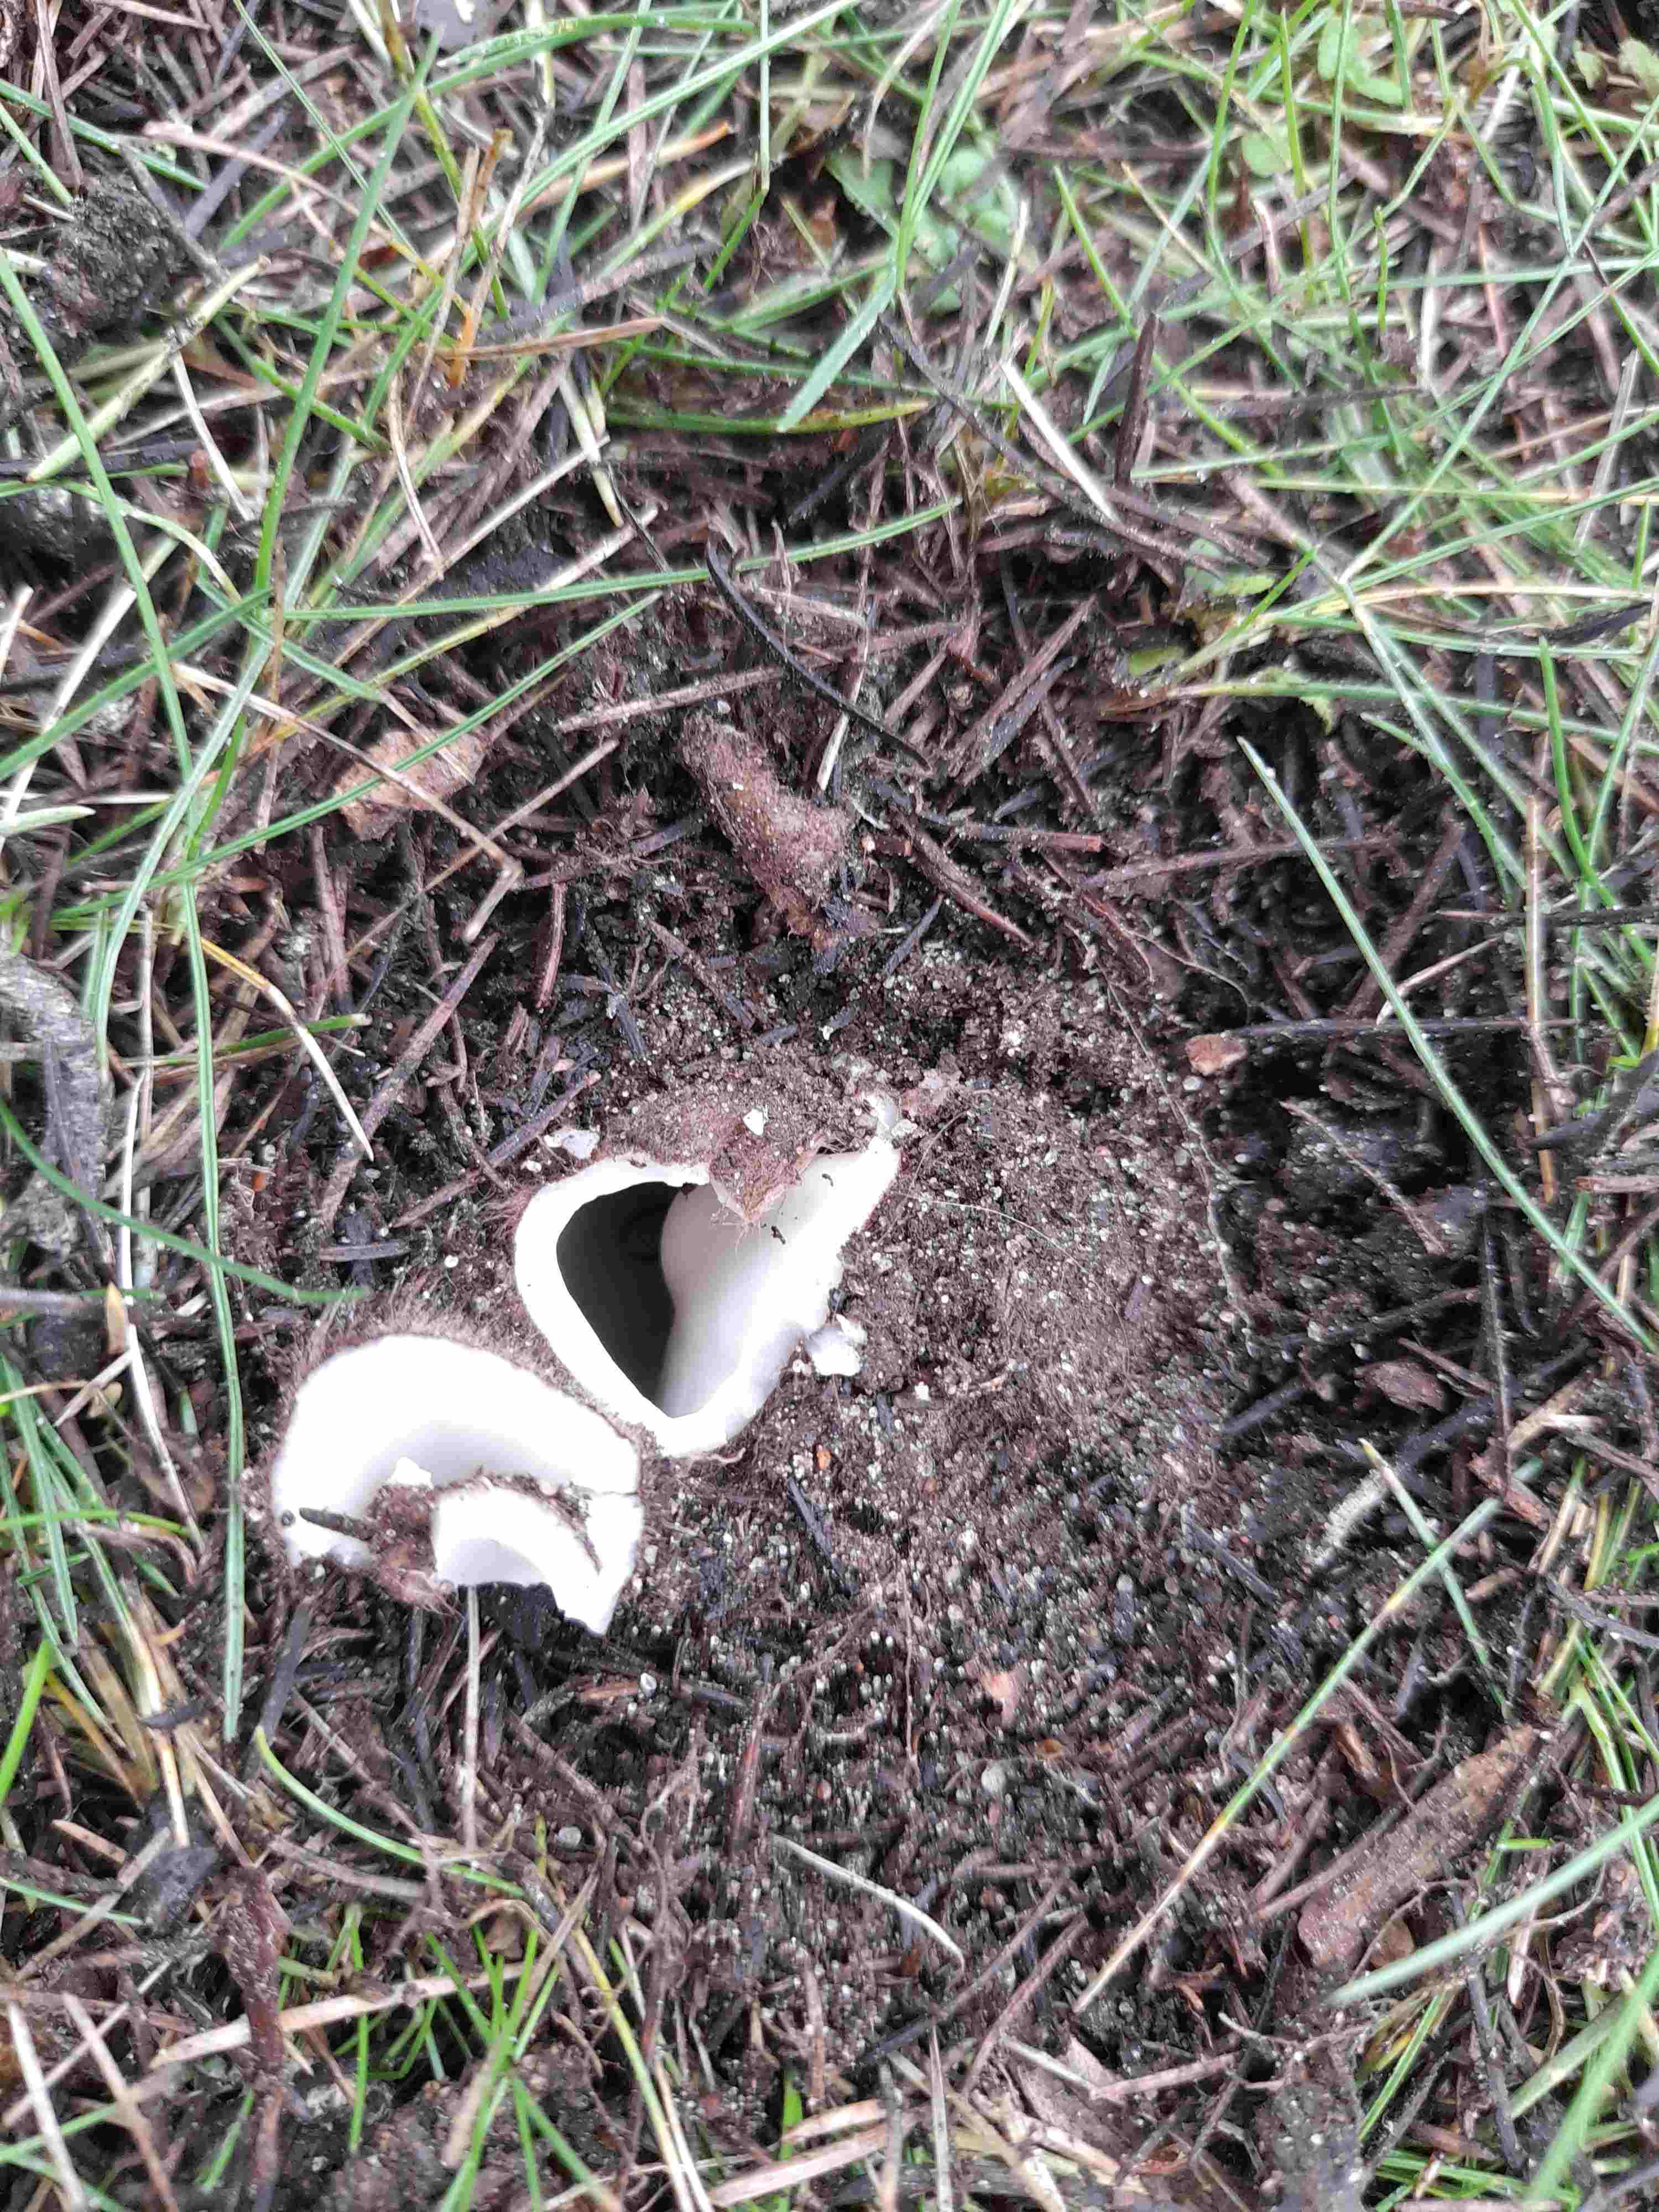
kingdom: Fungi
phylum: Ascomycota
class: Pezizomycetes
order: Pezizales
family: Pyronemataceae
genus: Geopora
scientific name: Geopora sumneriana
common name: vår-jordbæger
